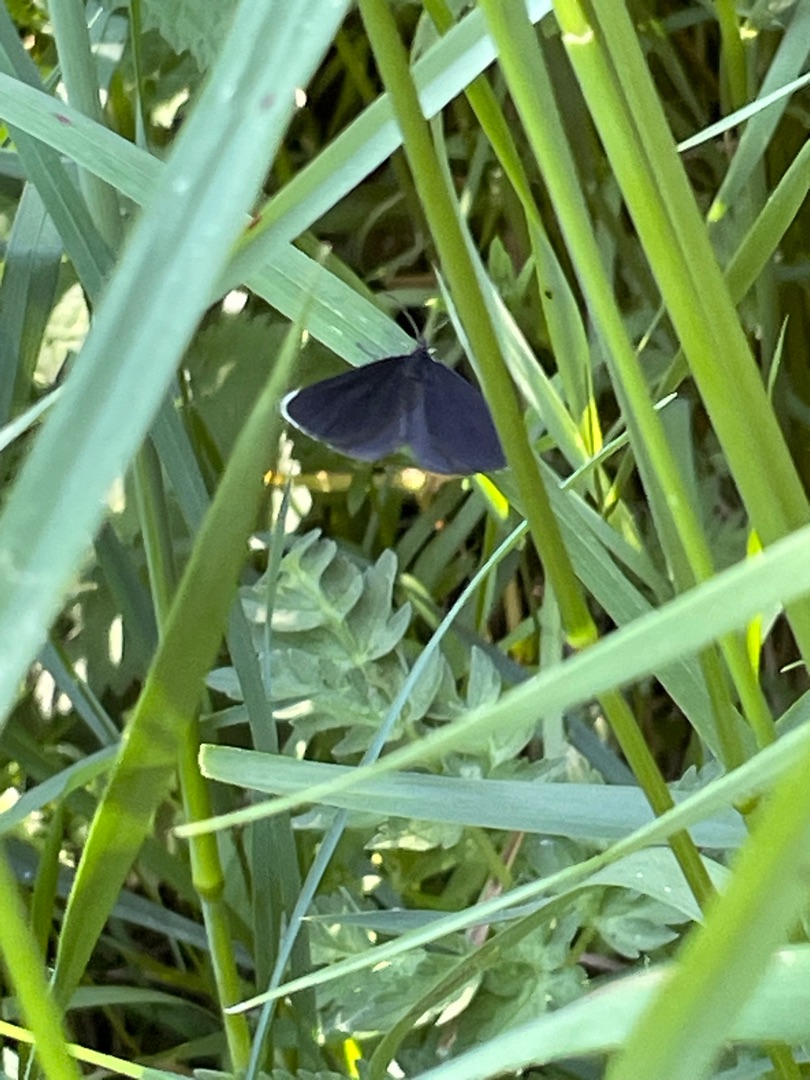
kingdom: Animalia
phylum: Arthropoda
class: Insecta
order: Lepidoptera
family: Geometridae
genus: Odezia
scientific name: Odezia atrata
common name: Sort måler
